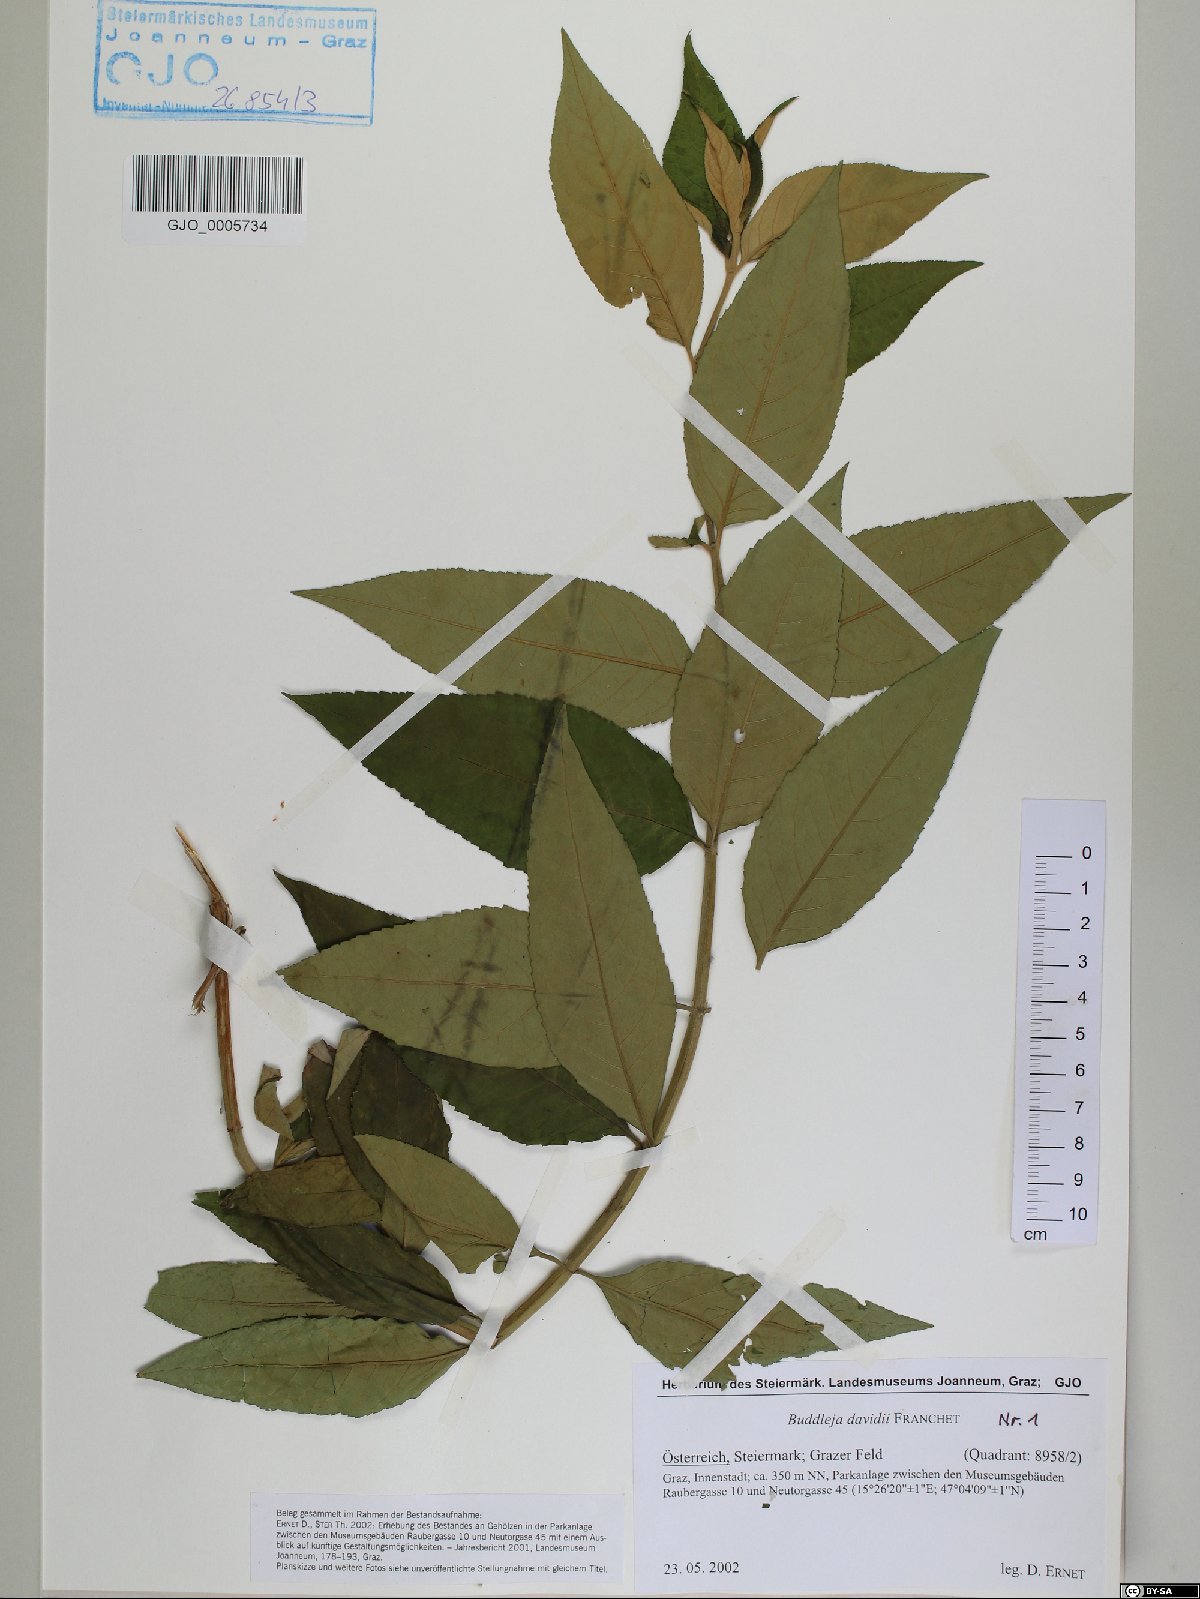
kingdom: Plantae
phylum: Tracheophyta
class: Magnoliopsida
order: Lamiales
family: Scrophulariaceae
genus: Buddleja
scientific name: Buddleja davidii
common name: Butterfly-bush
